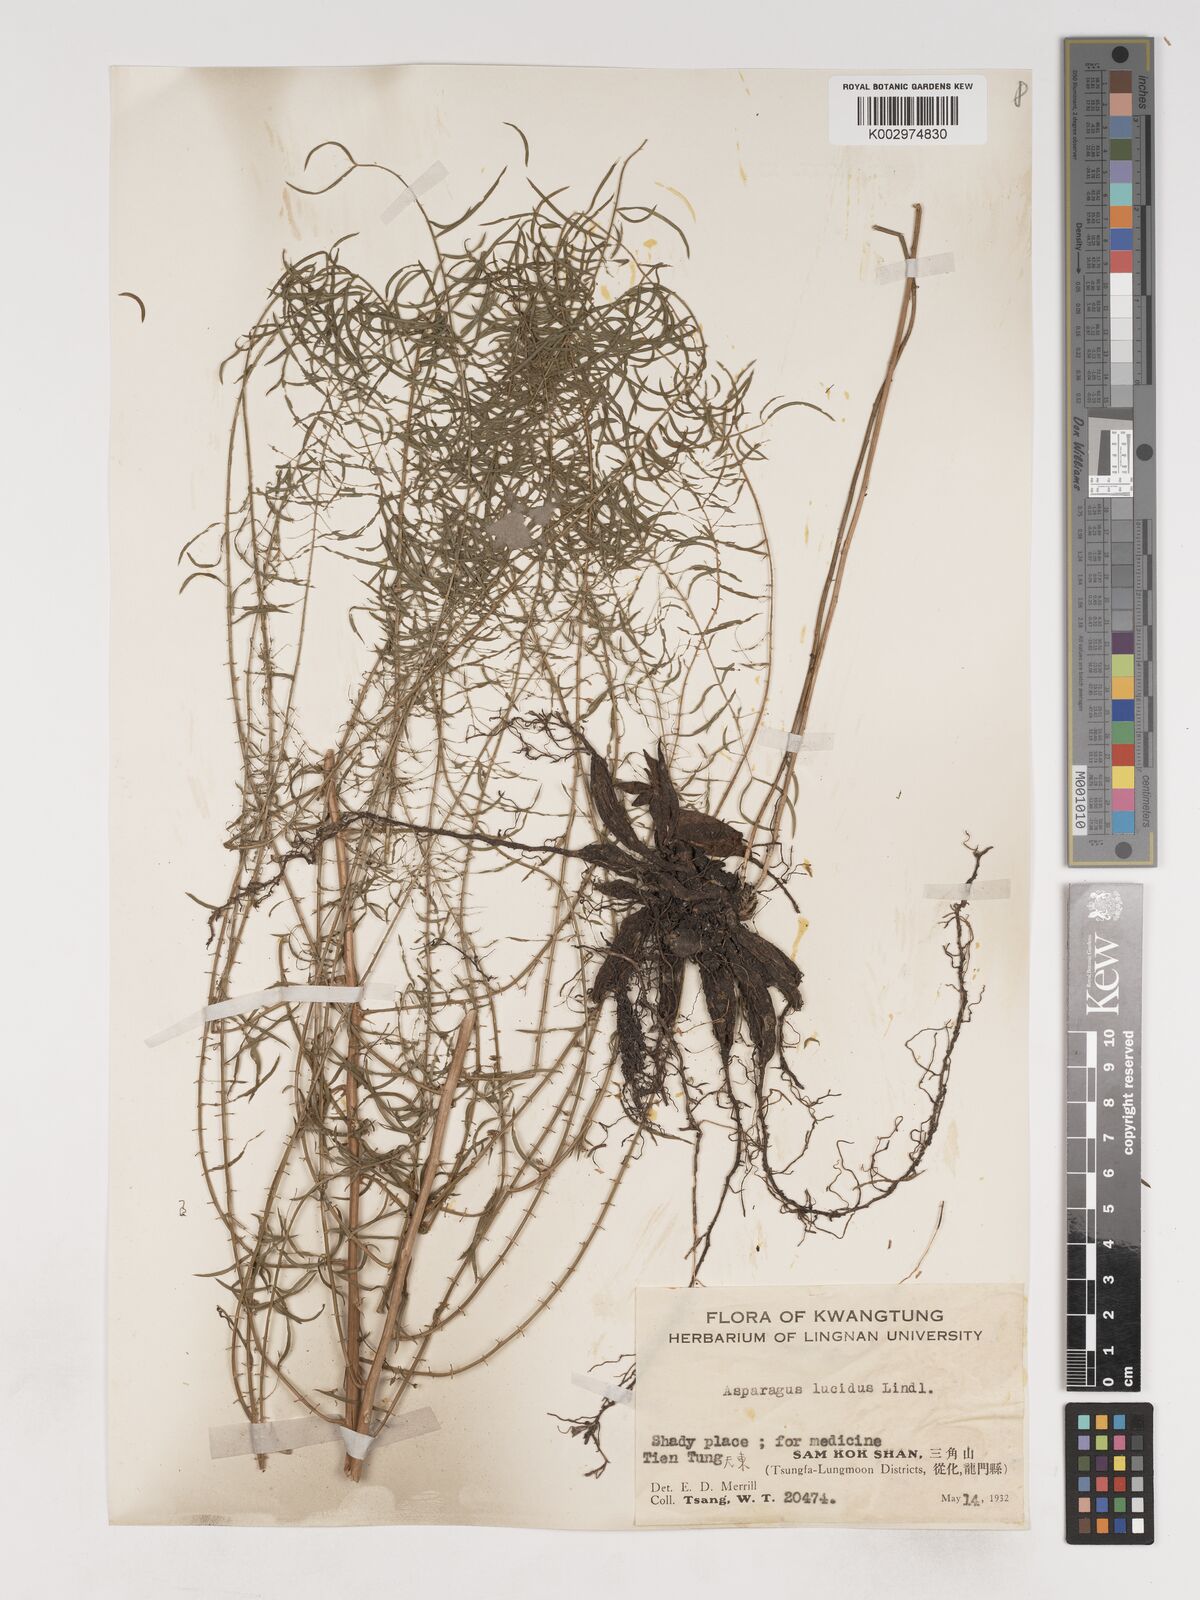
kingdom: Plantae
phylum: Tracheophyta
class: Liliopsida
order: Asparagales
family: Asparagaceae
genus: Asparagus
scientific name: Asparagus cochinchinensis
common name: Chinese asparagus
